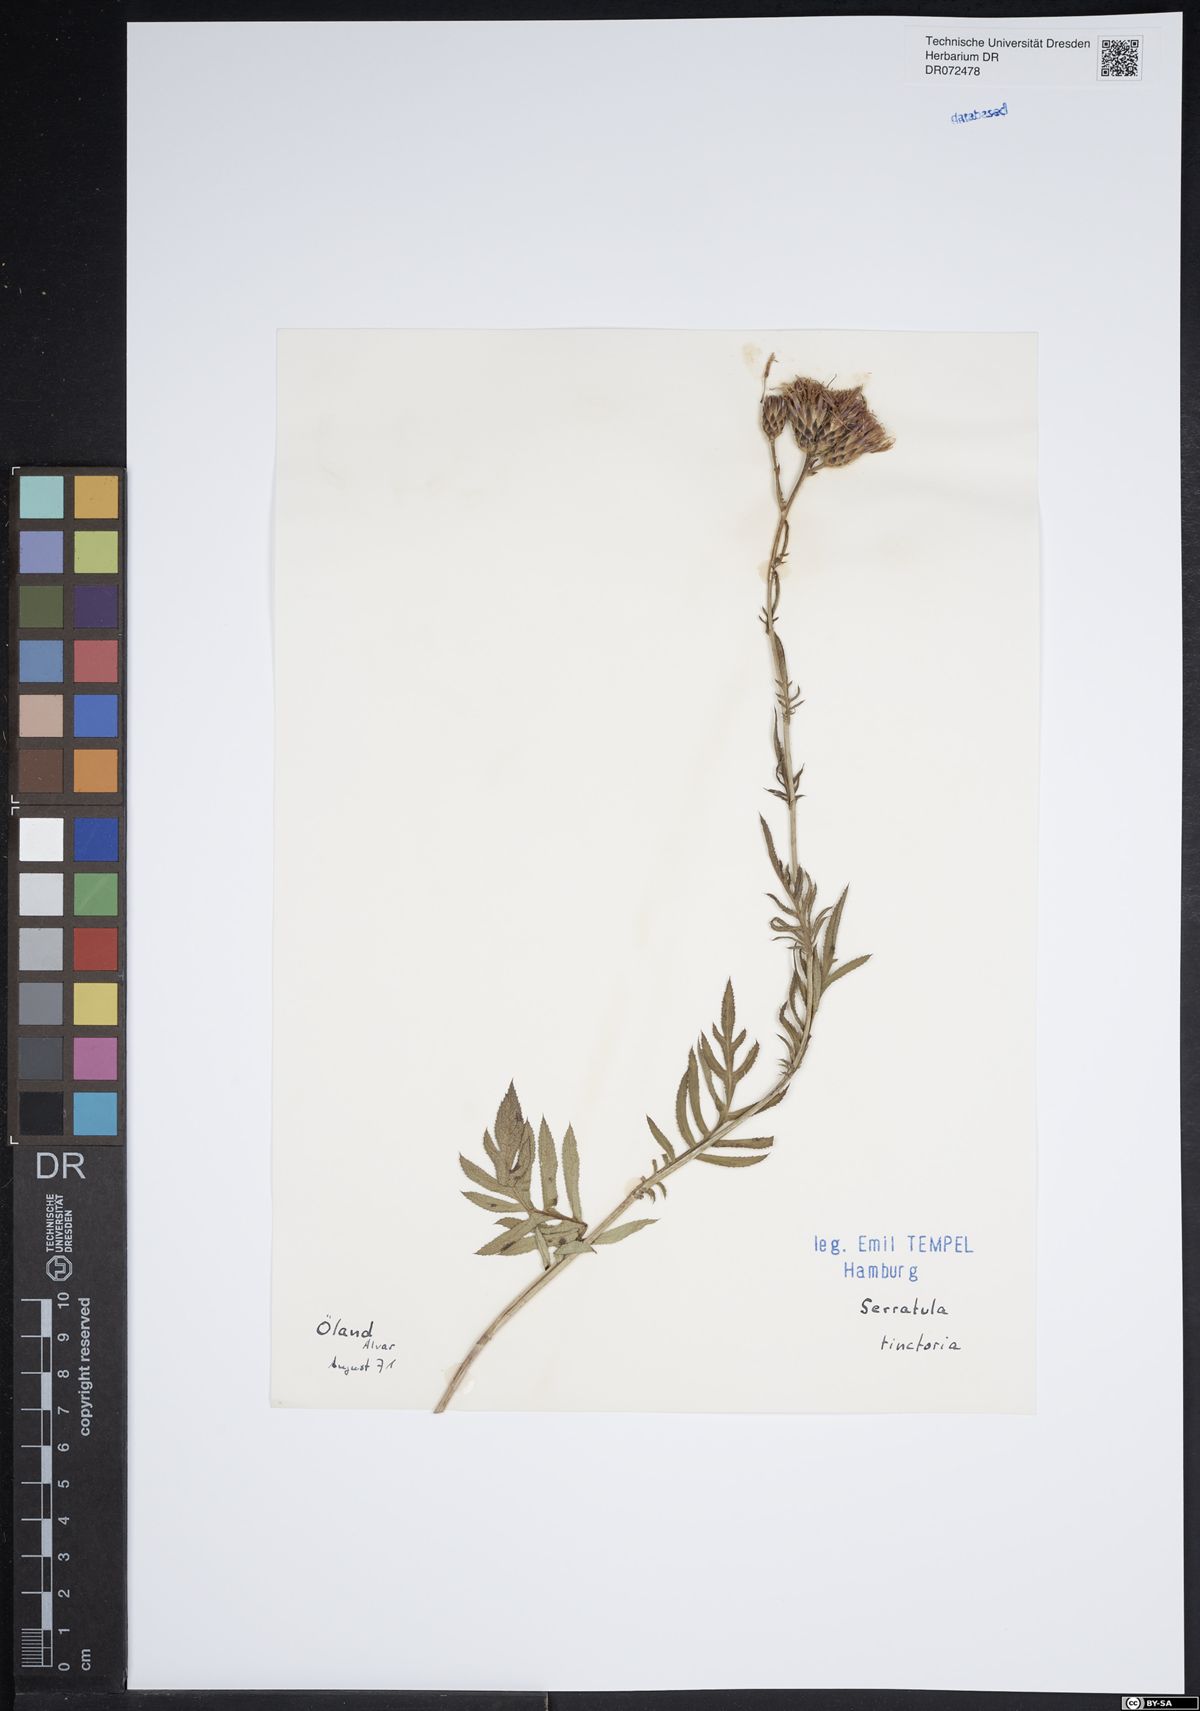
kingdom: Plantae
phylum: Tracheophyta
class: Magnoliopsida
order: Asterales
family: Asteraceae
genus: Serratula
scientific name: Serratula tinctoria
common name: Saw-wort
